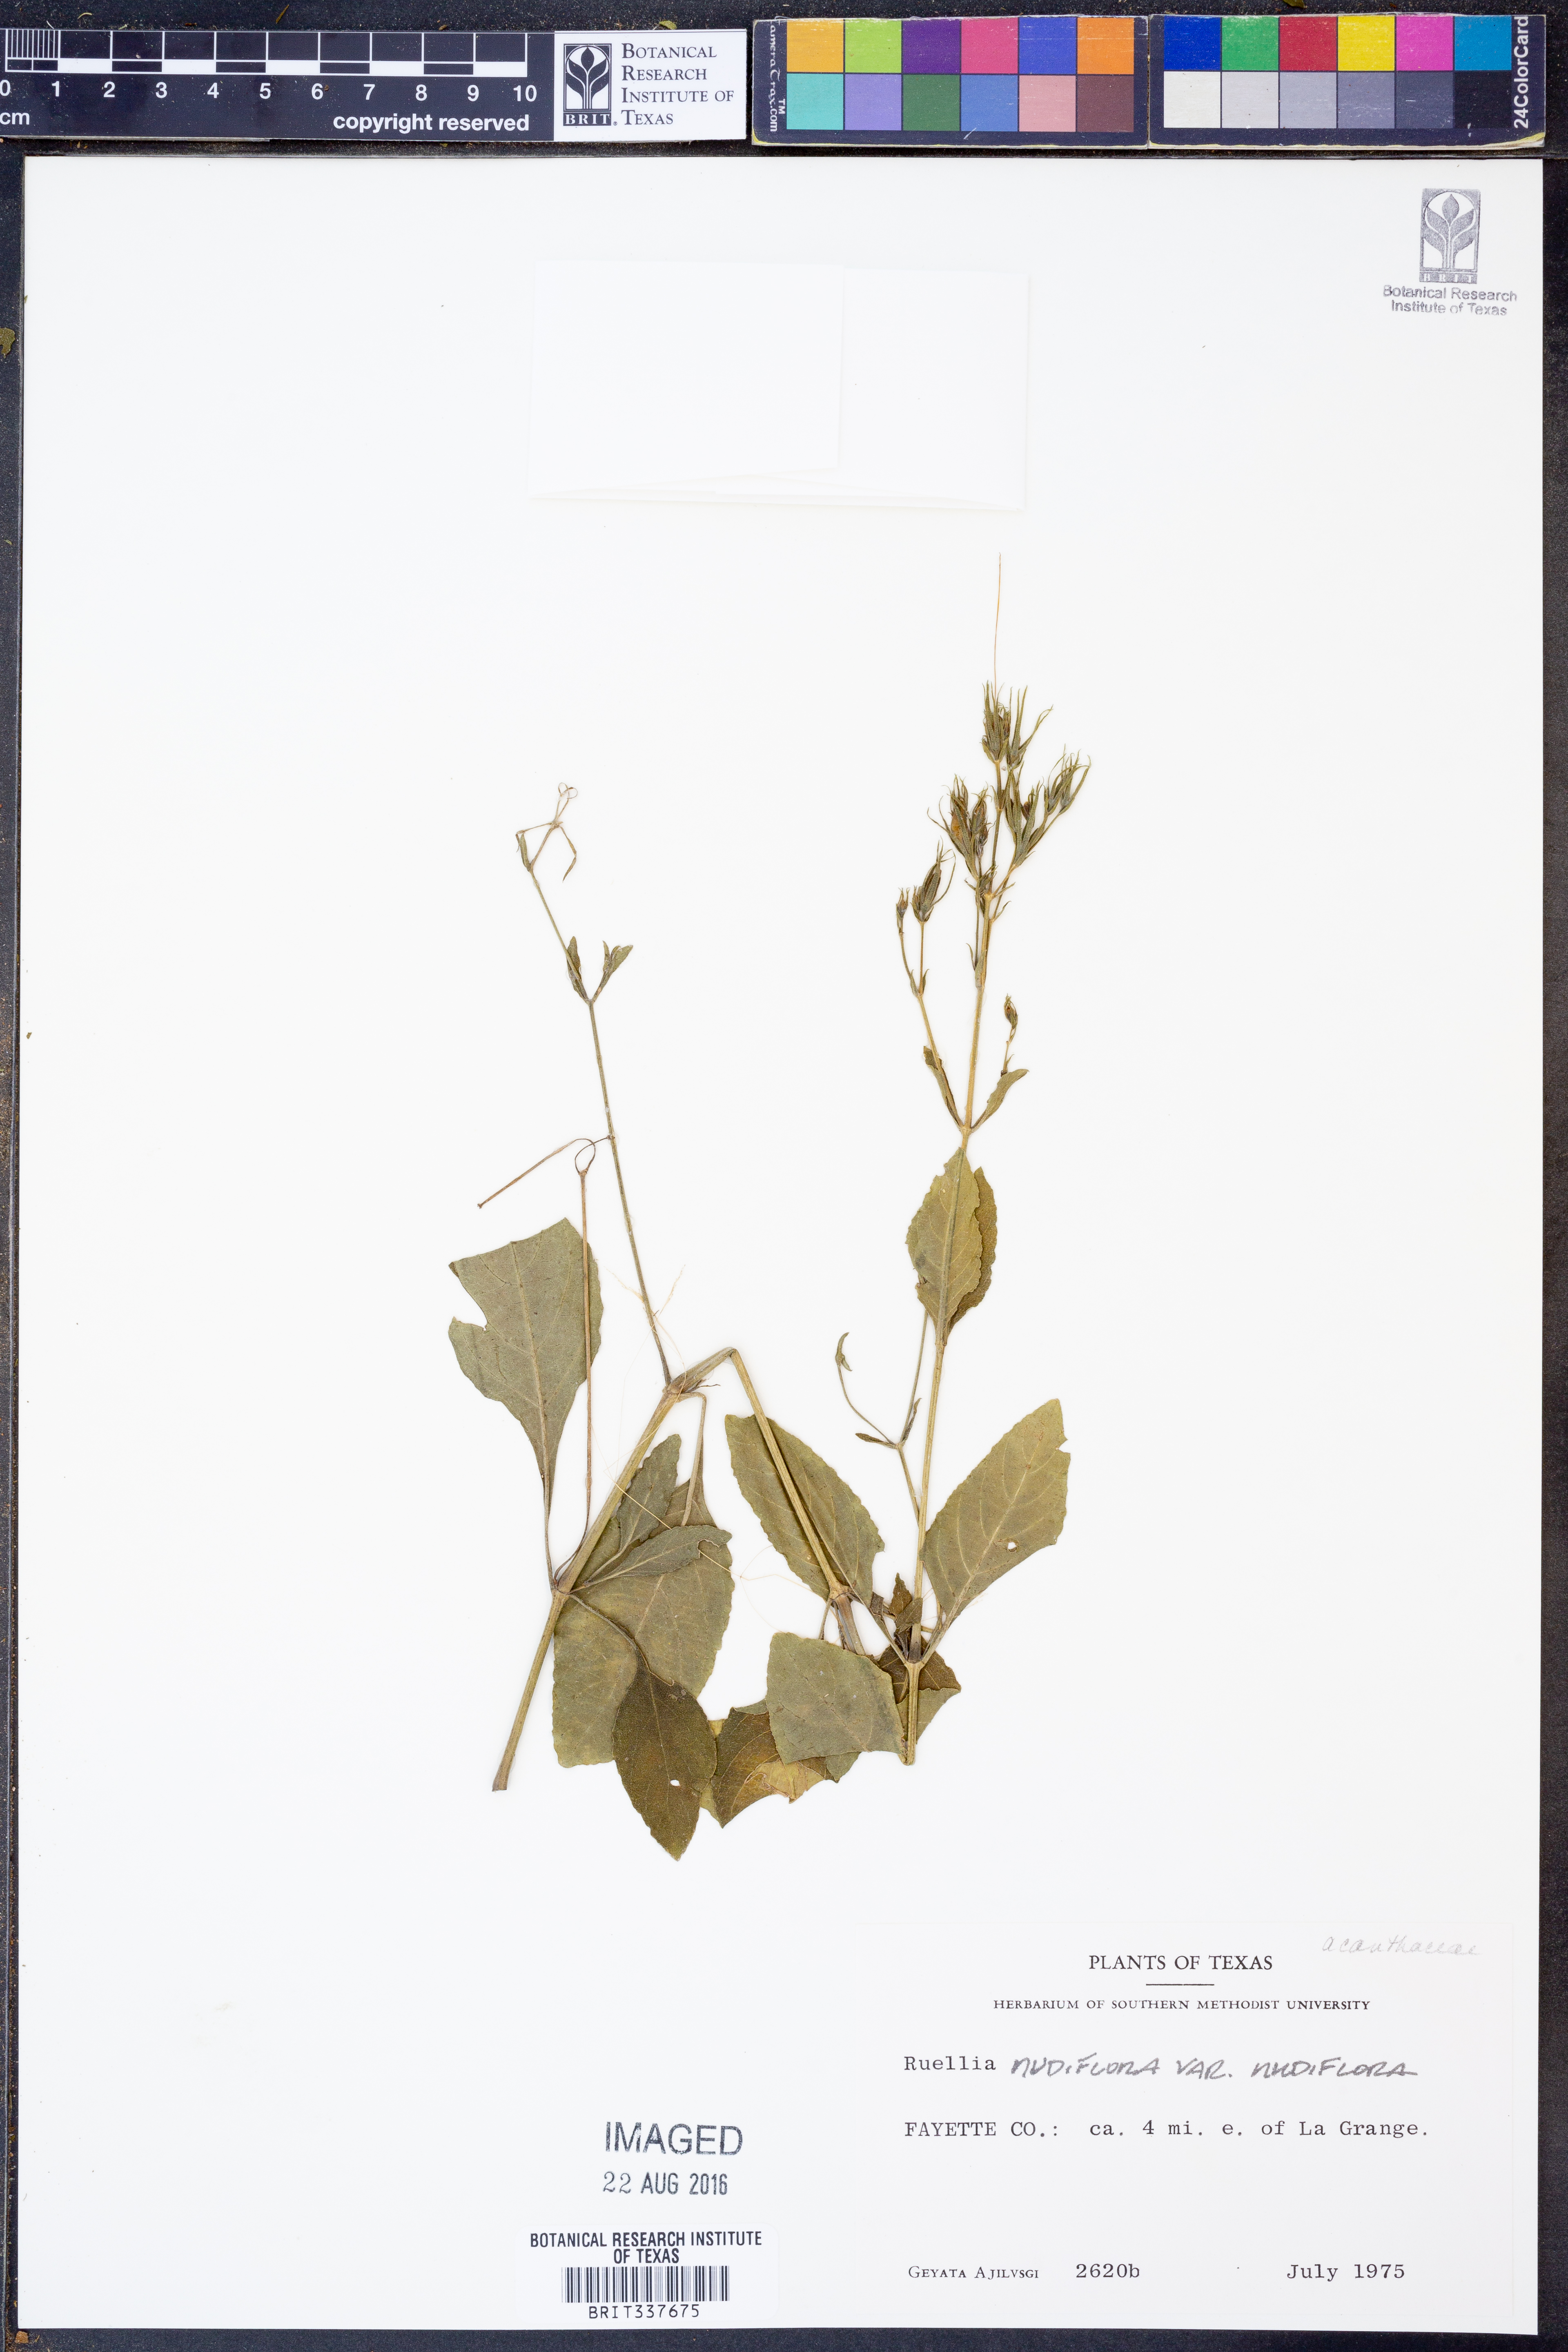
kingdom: Plantae
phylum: Tracheophyta
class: Magnoliopsida
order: Lamiales
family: Acanthaceae
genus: Ruellia
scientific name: Ruellia ciliatiflora
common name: Hairyflower wild petunia
